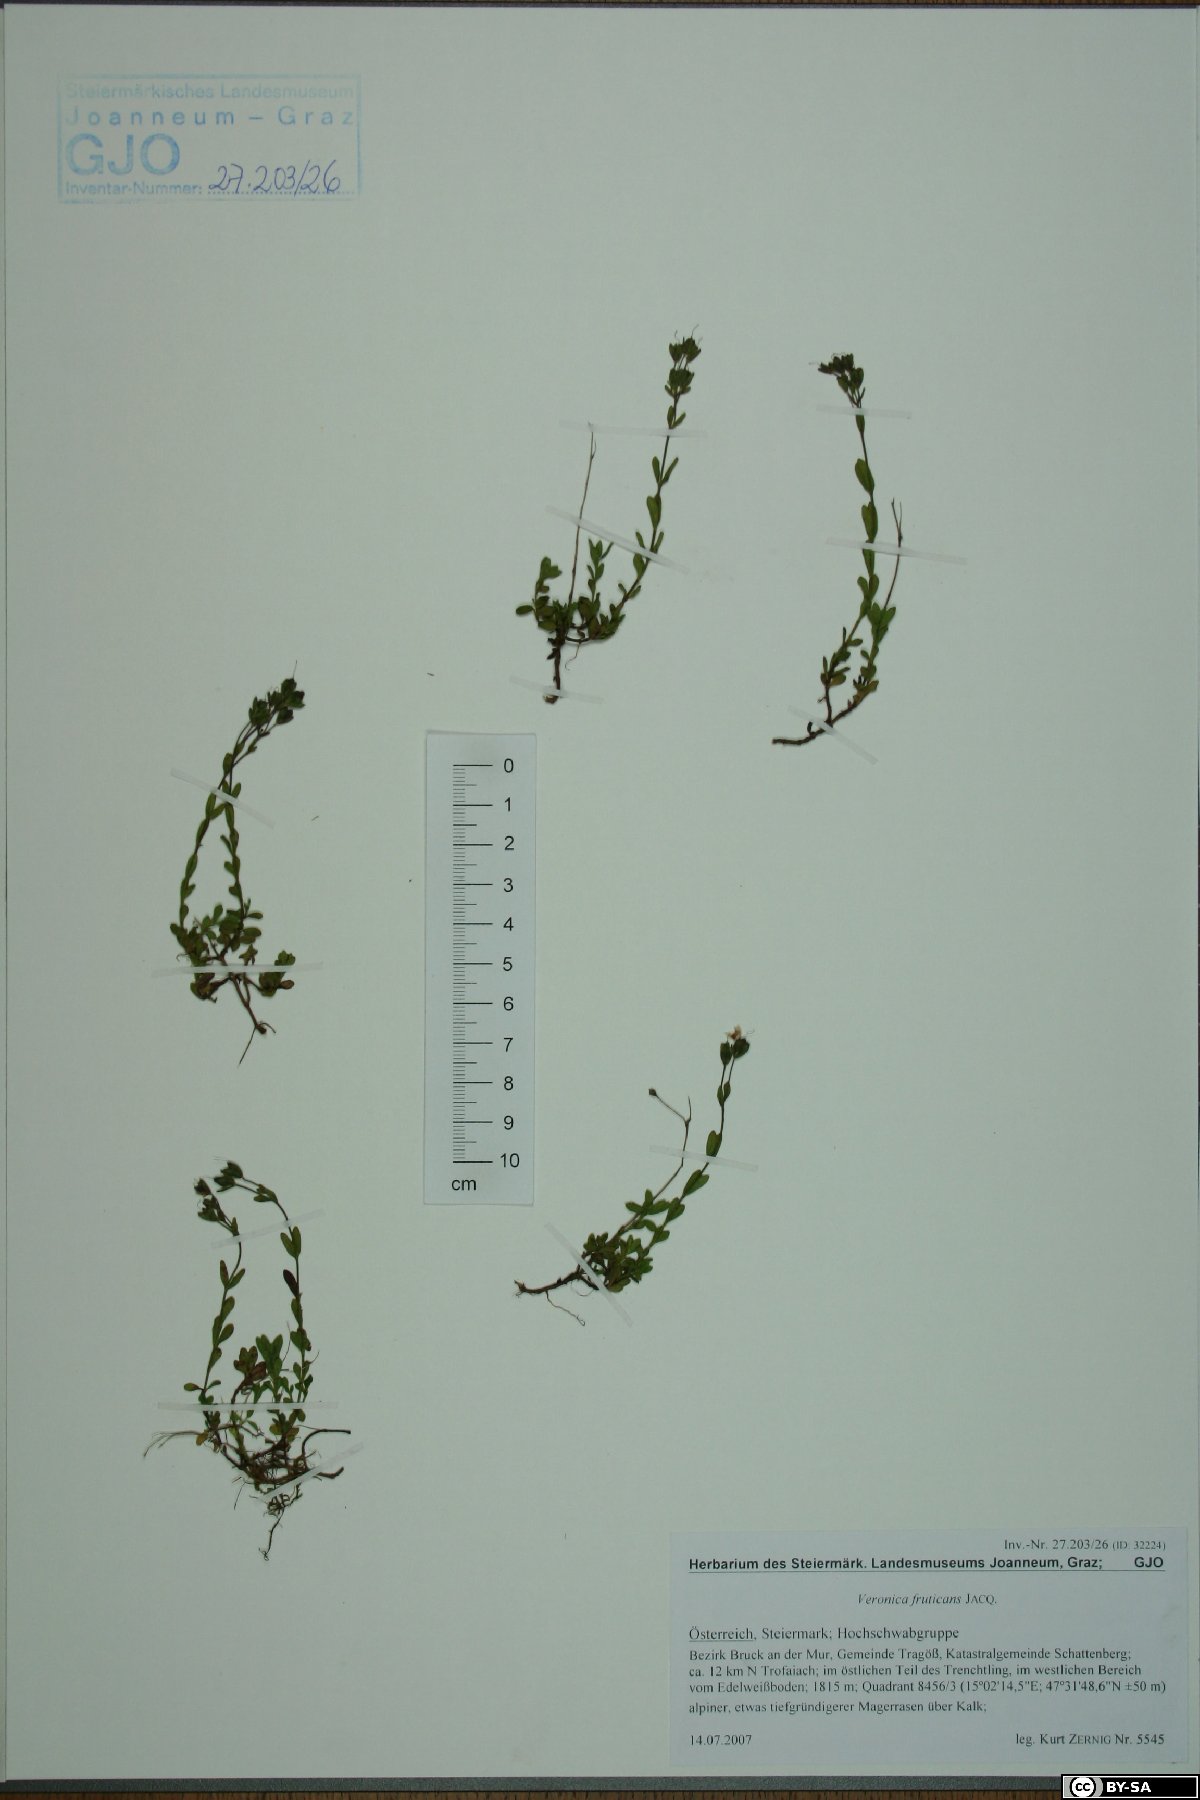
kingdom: Plantae
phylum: Tracheophyta
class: Magnoliopsida
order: Lamiales
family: Plantaginaceae
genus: Veronica
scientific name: Veronica fruticans
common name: Rock speedwell
